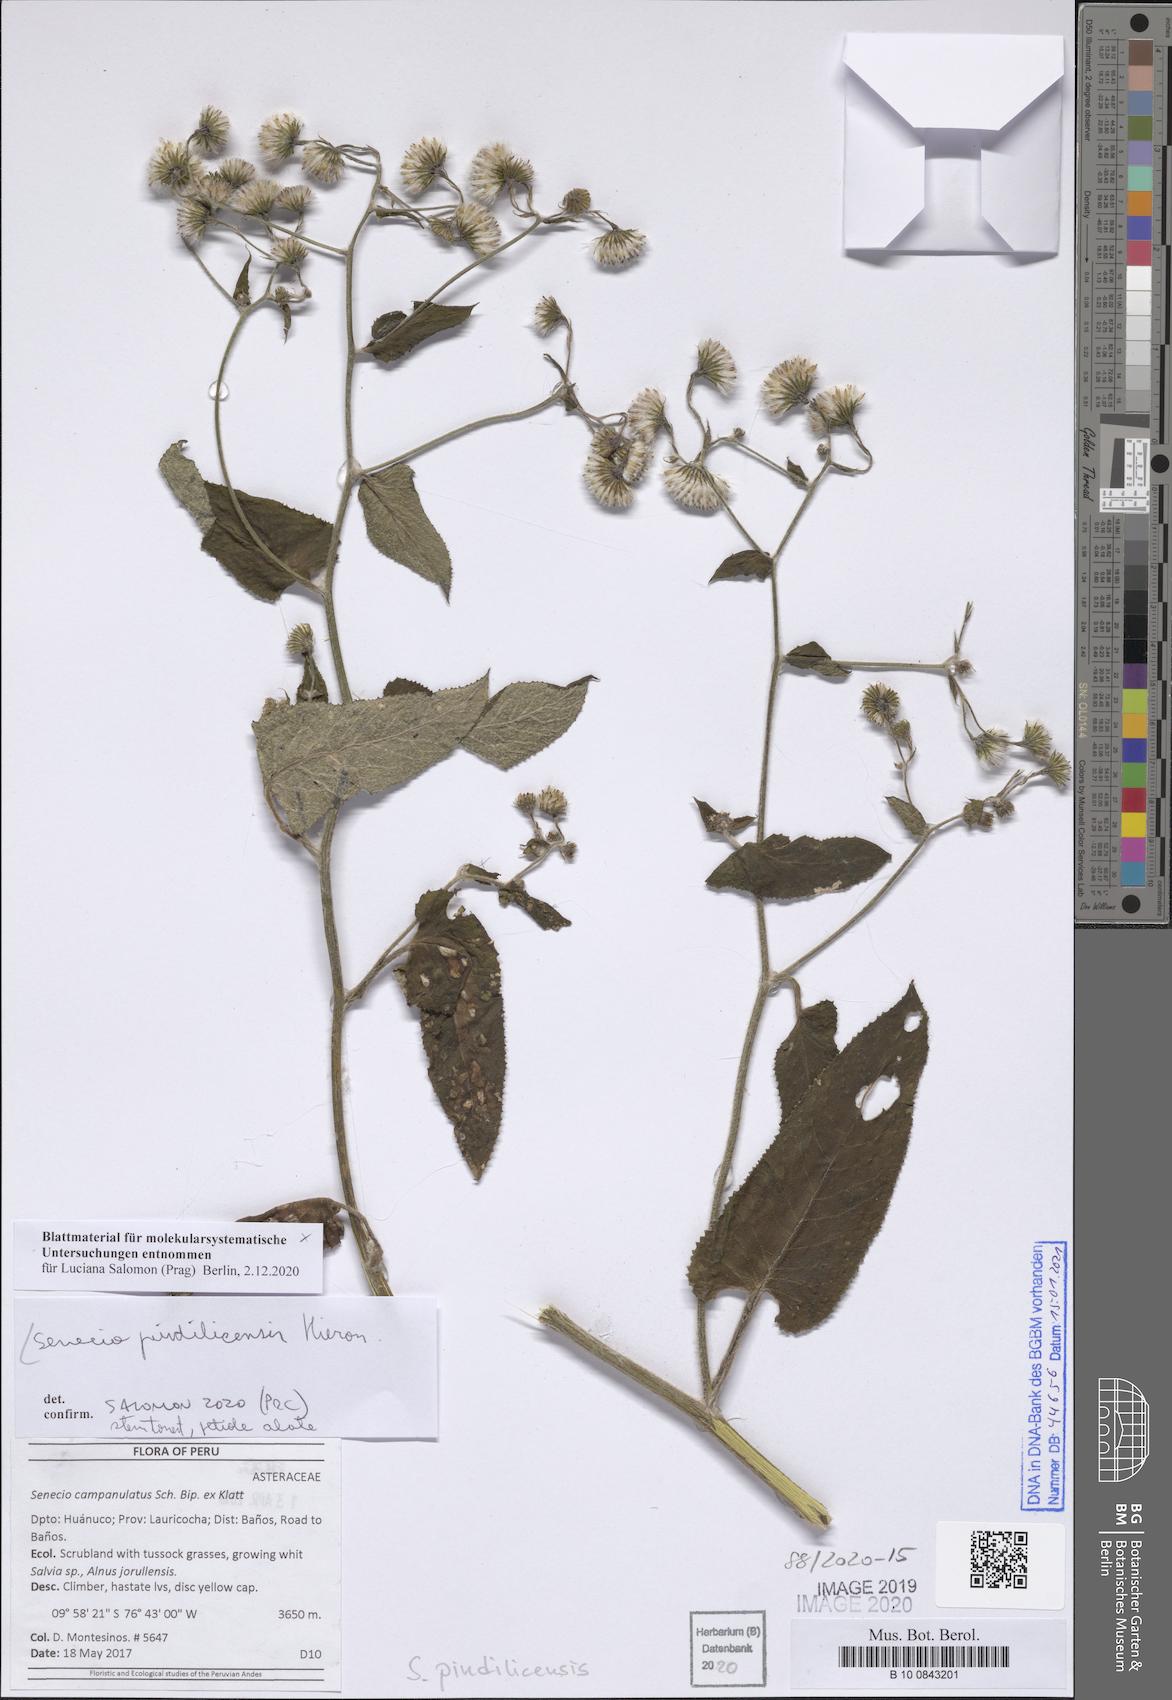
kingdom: Plantae
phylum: Tracheophyta
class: Magnoliopsida
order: Asterales
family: Asteraceae
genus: Aetheolaena
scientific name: Aetheolaena heterophylla
